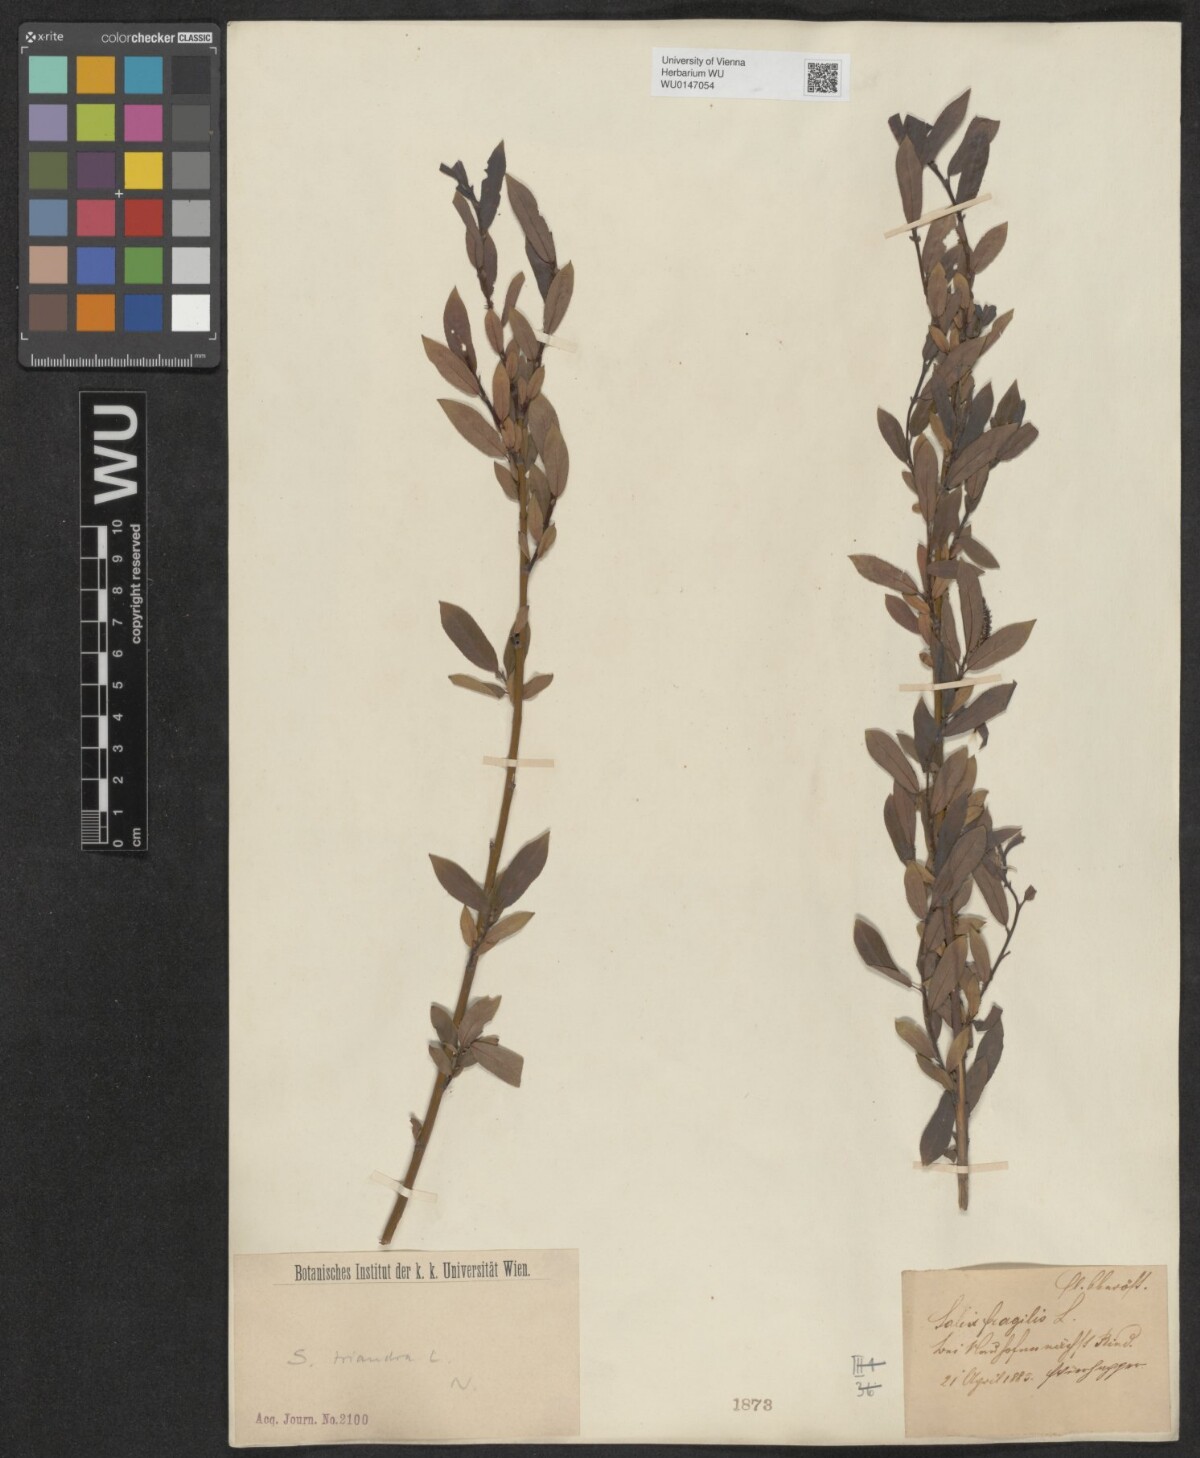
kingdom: Plantae
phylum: Tracheophyta
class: Magnoliopsida
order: Malpighiales
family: Salicaceae
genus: Salix
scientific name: Salix triandra
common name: Almond willow
